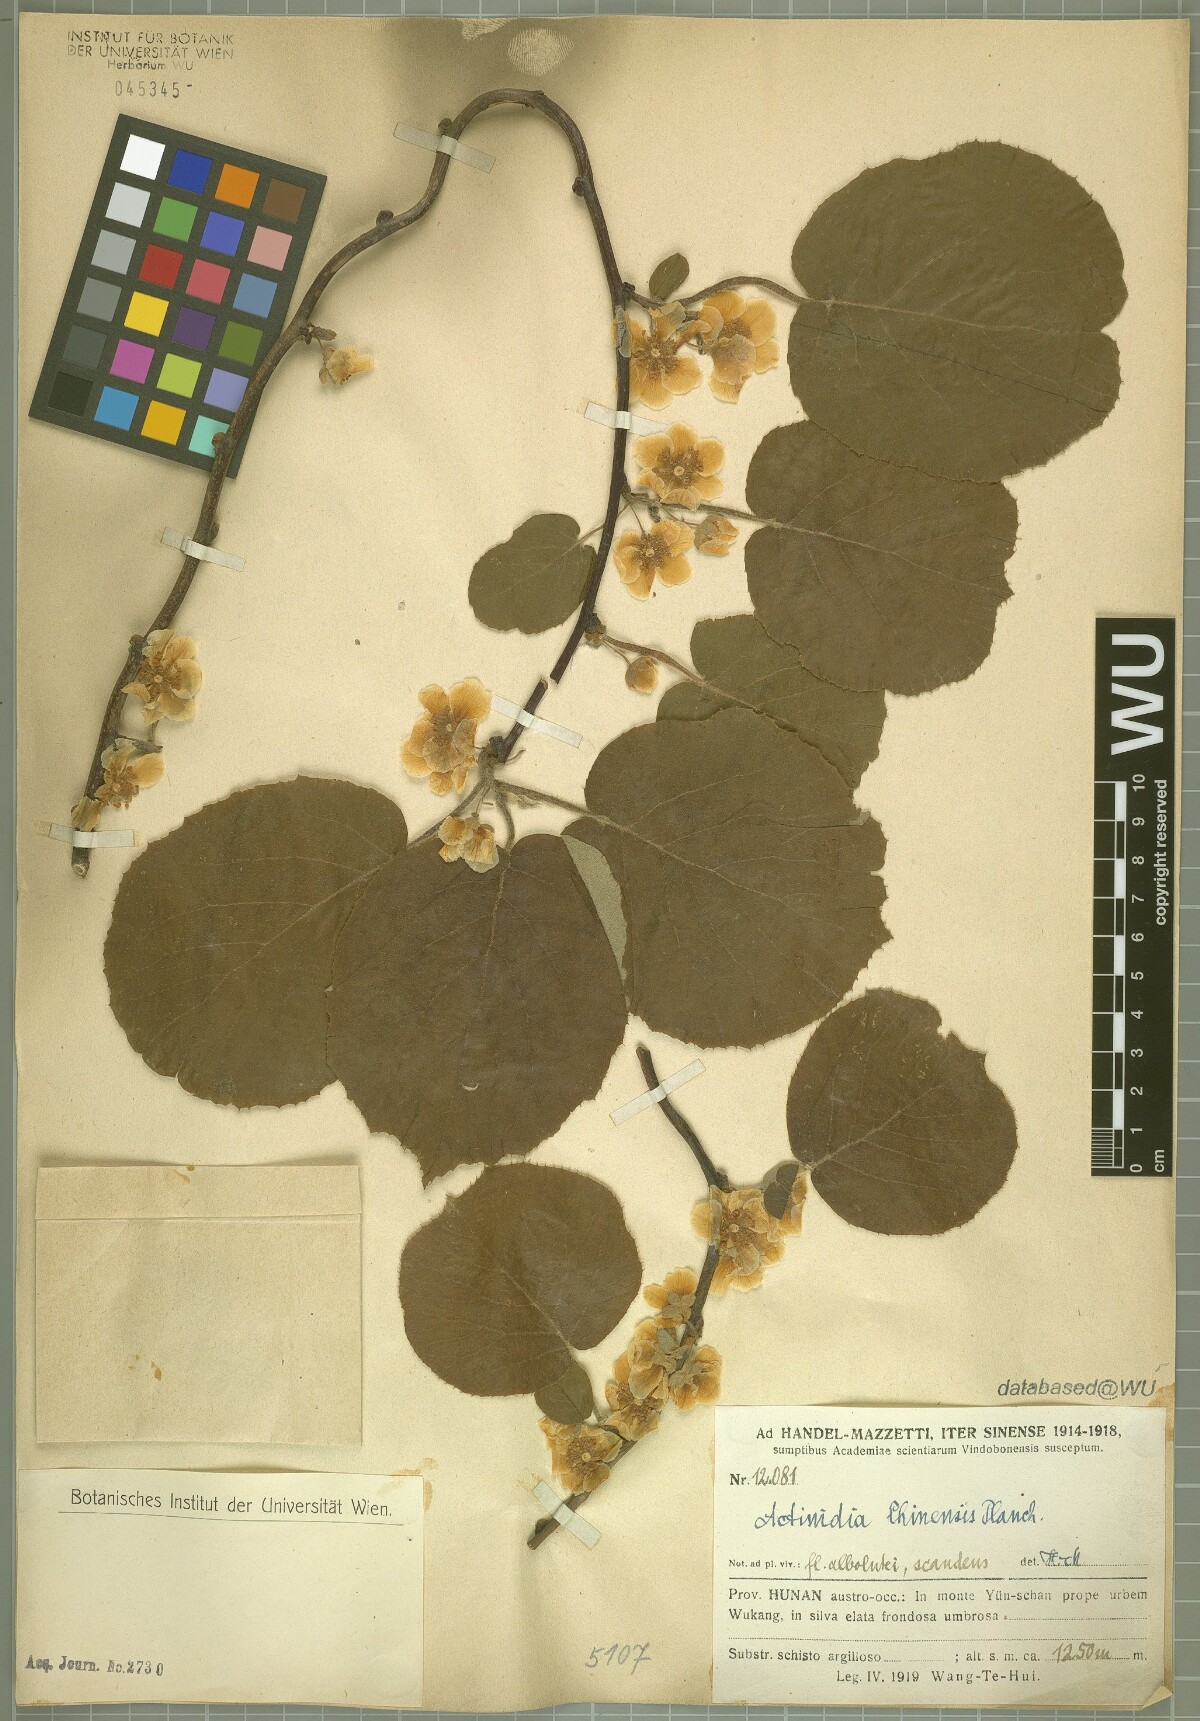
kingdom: Plantae
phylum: Tracheophyta
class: Magnoliopsida
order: Ericales
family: Actinidiaceae
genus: Actinidia
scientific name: Actinidia chinensis
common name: Kiwi
